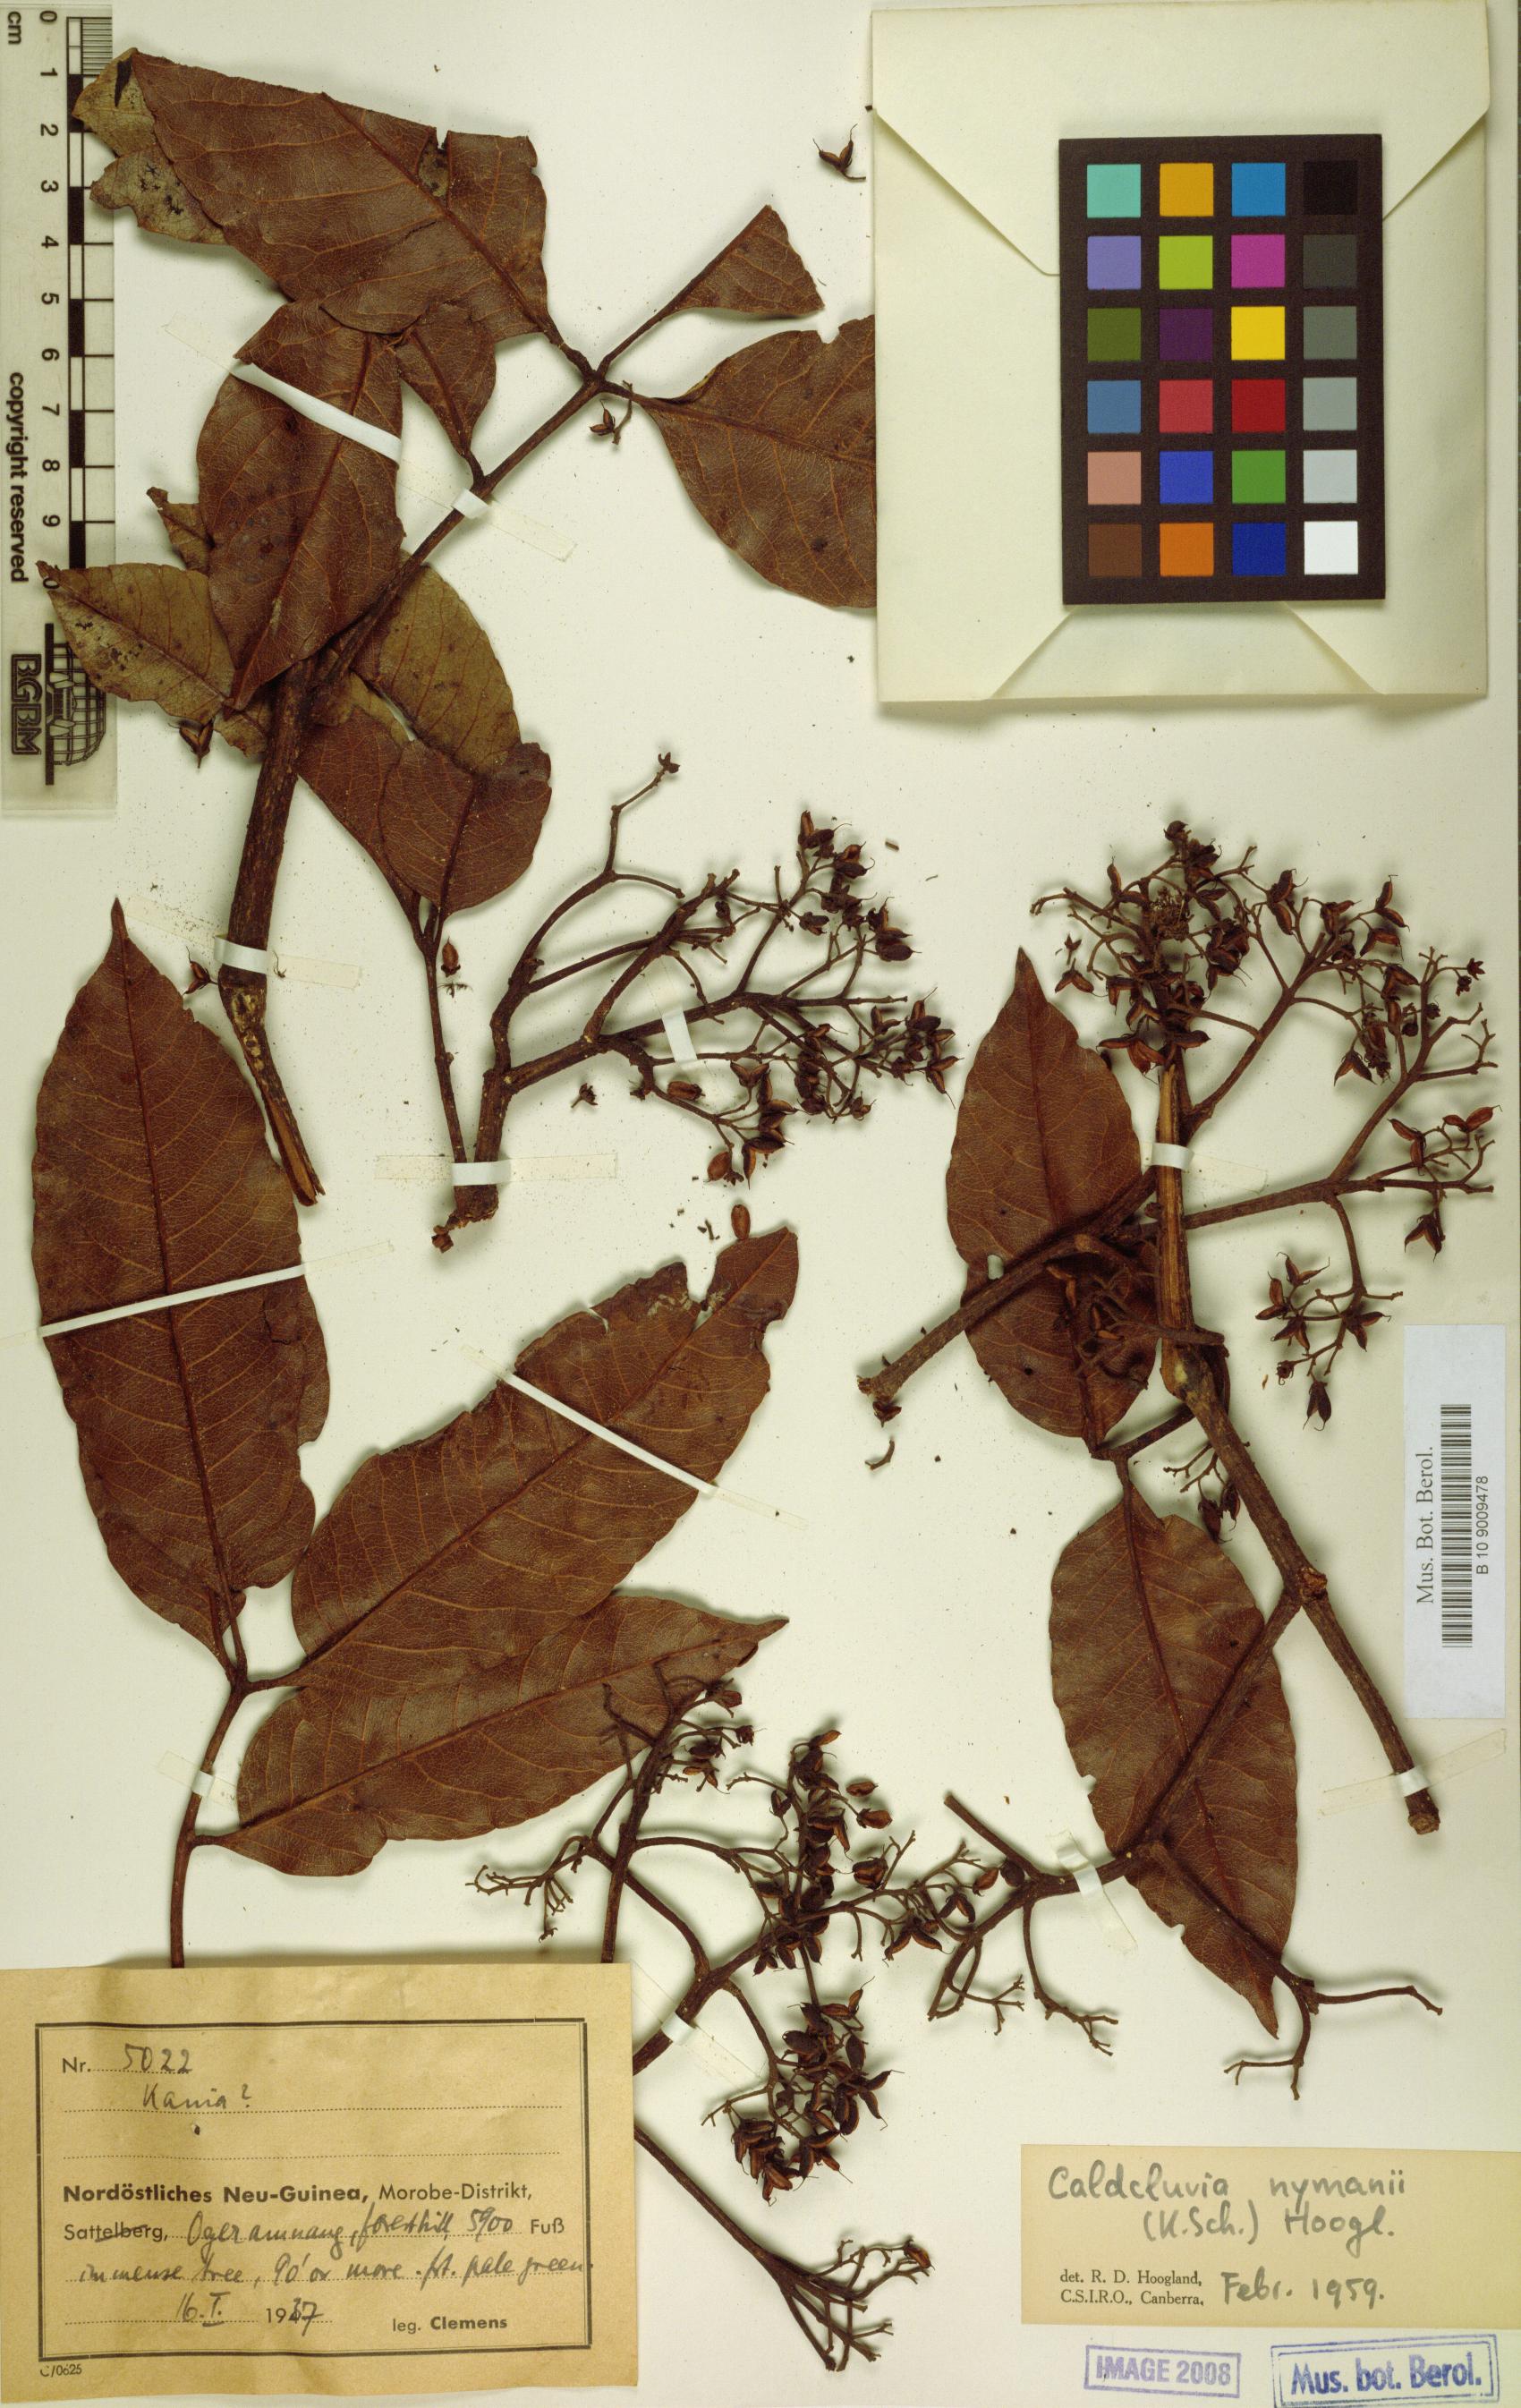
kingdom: Plantae
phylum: Tracheophyta
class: Magnoliopsida
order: Oxalidales
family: Cunoniaceae
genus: Opocunonia
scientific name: Opocunonia nymanii
